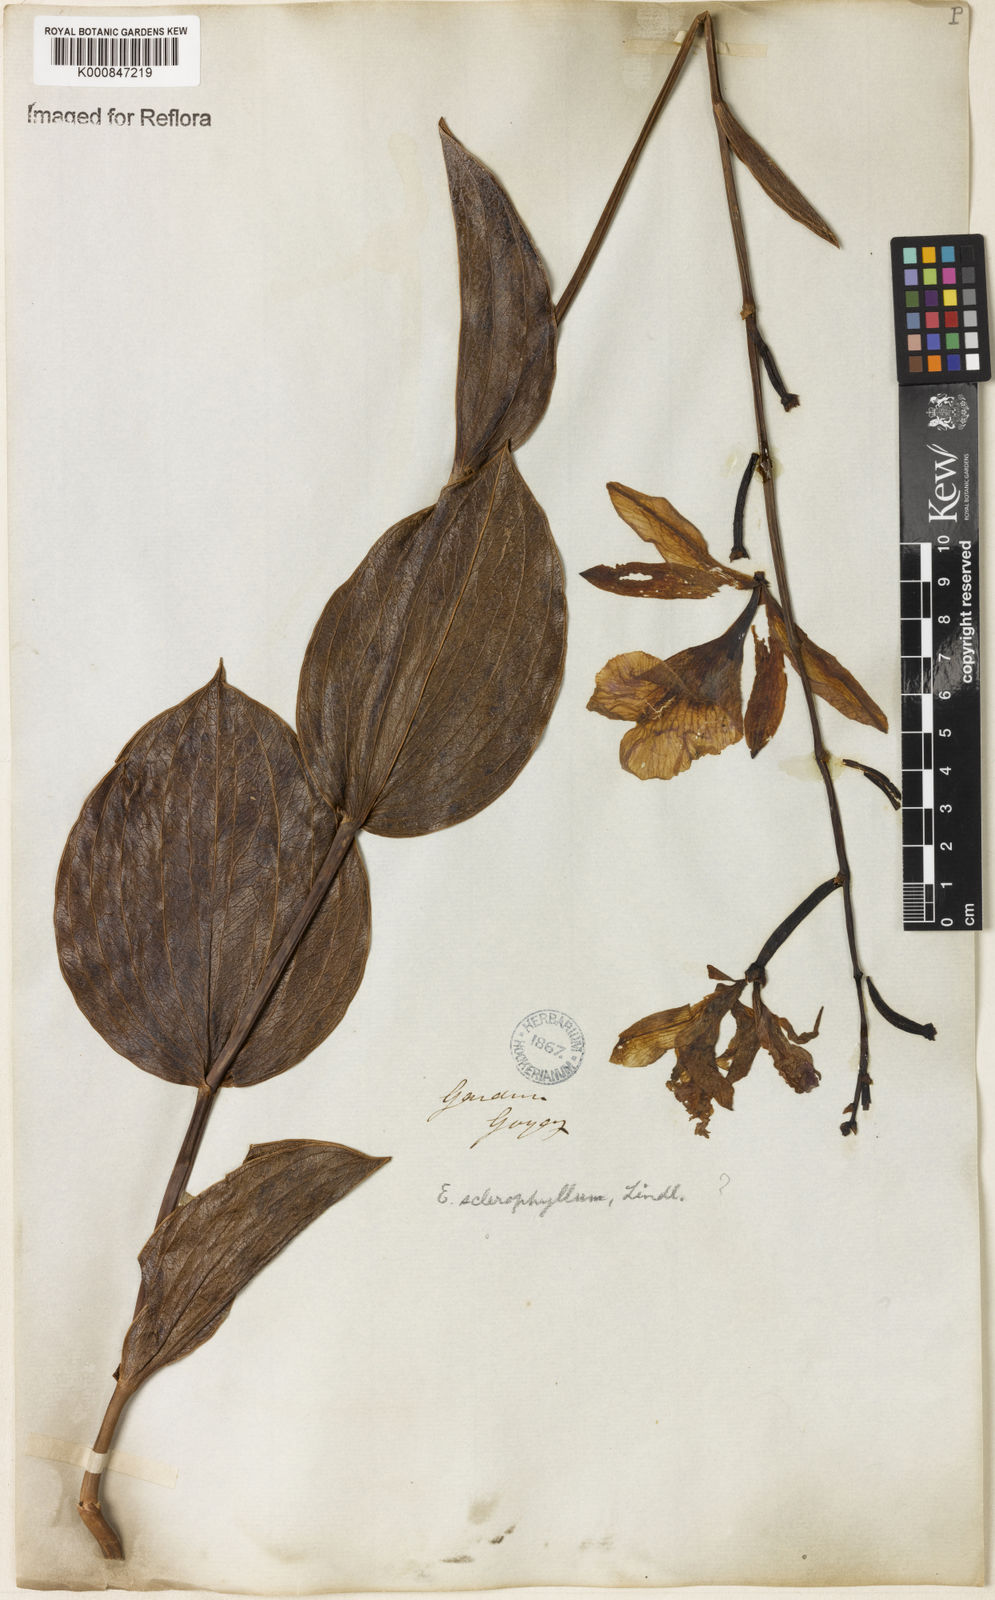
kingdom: Plantae
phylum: Tracheophyta
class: Liliopsida
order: Asparagales
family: Orchidaceae
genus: Epistephium
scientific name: Epistephium sclerophyllum
